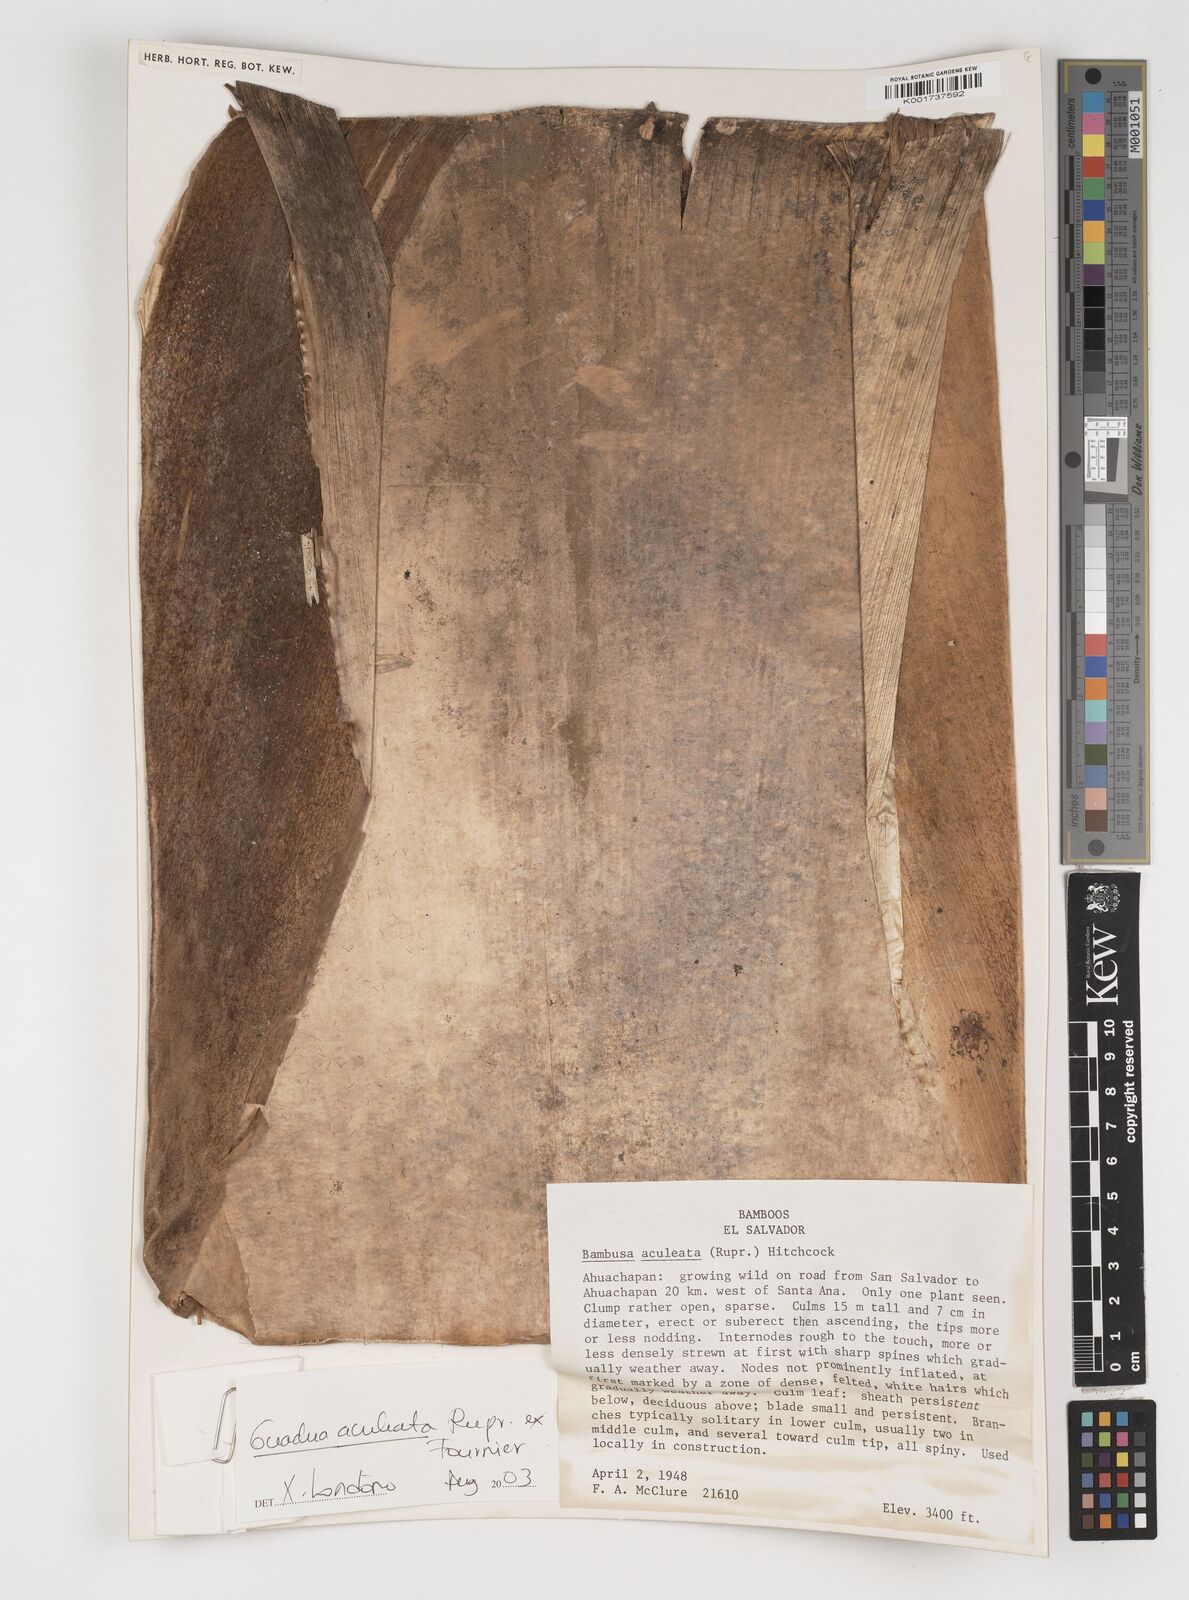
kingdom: Plantae
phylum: Tracheophyta
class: Liliopsida
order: Poales
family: Poaceae
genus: Guadua
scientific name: Guadua aculeata
